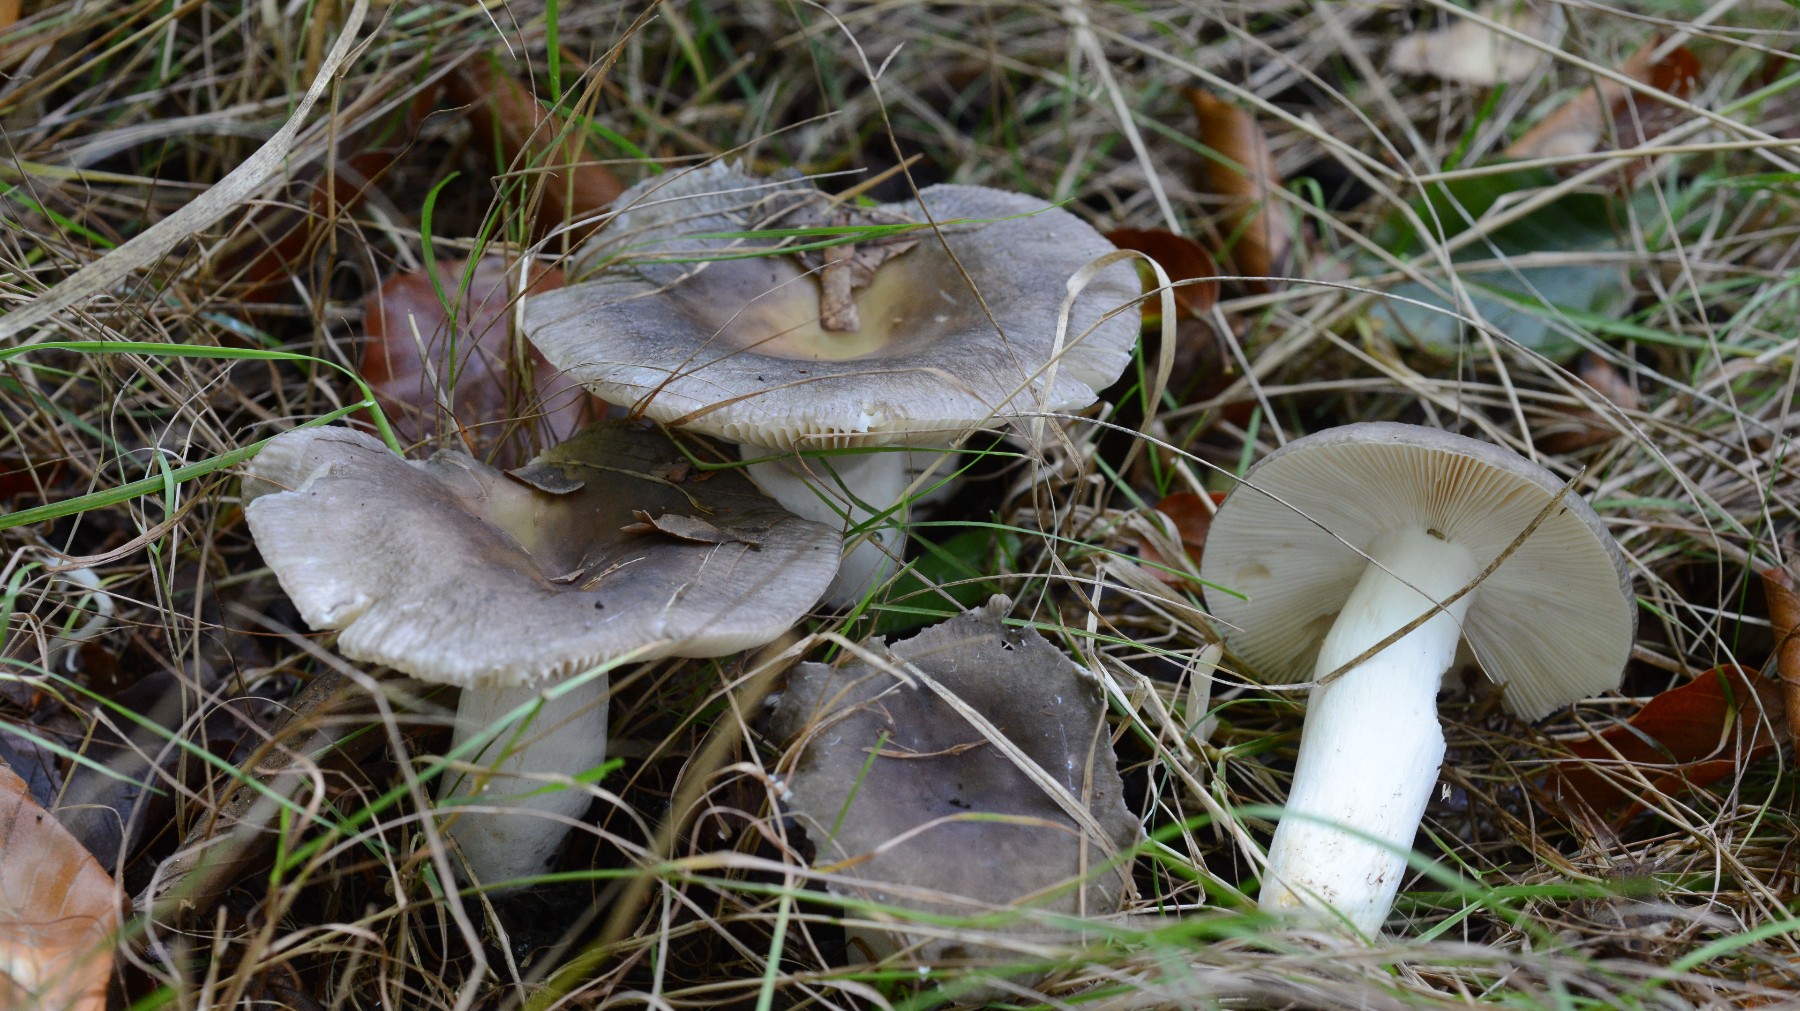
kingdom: Fungi
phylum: Basidiomycota
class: Agaricomycetes
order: Russulales
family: Russulaceae
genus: Russula
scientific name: Russula ionochlora
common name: violetgrøn skørhat
